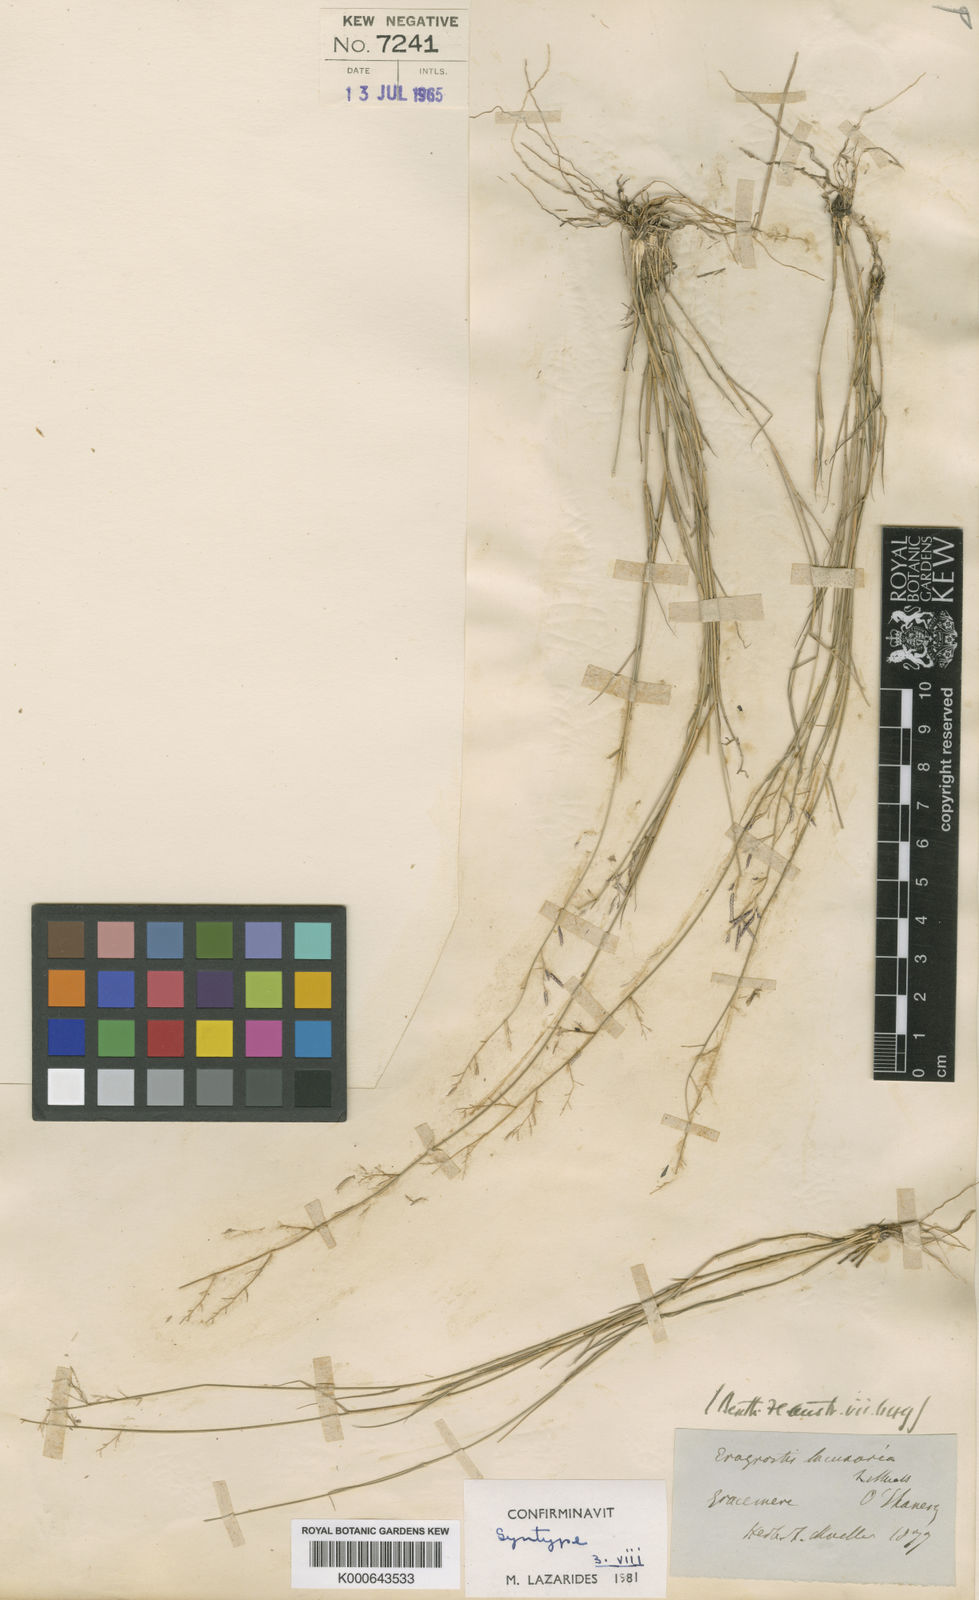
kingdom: Plantae
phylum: Tracheophyta
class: Liliopsida
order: Poales
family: Poaceae
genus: Eragrostis
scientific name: Eragrostis lacunaria
